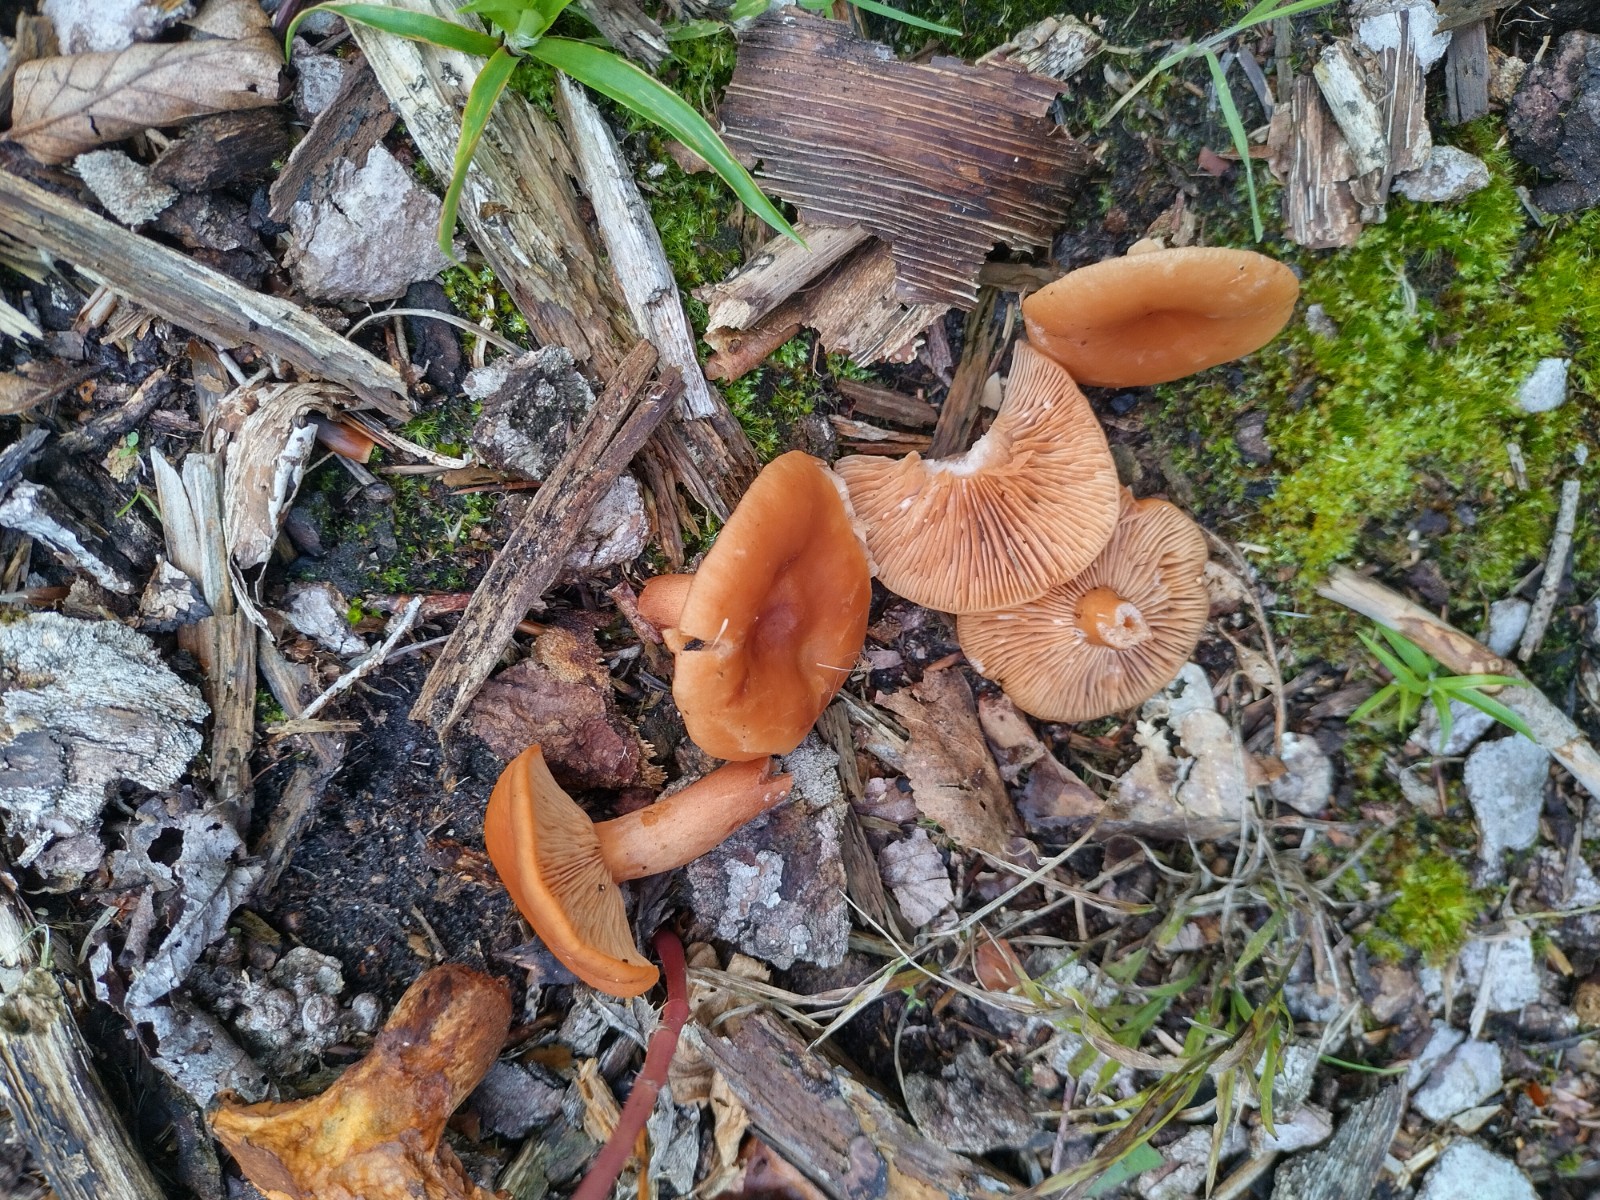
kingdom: Fungi
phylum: Basidiomycota
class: Agaricomycetes
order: Russulales
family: Russulaceae
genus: Lactarius
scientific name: Lactarius aurantiacus
